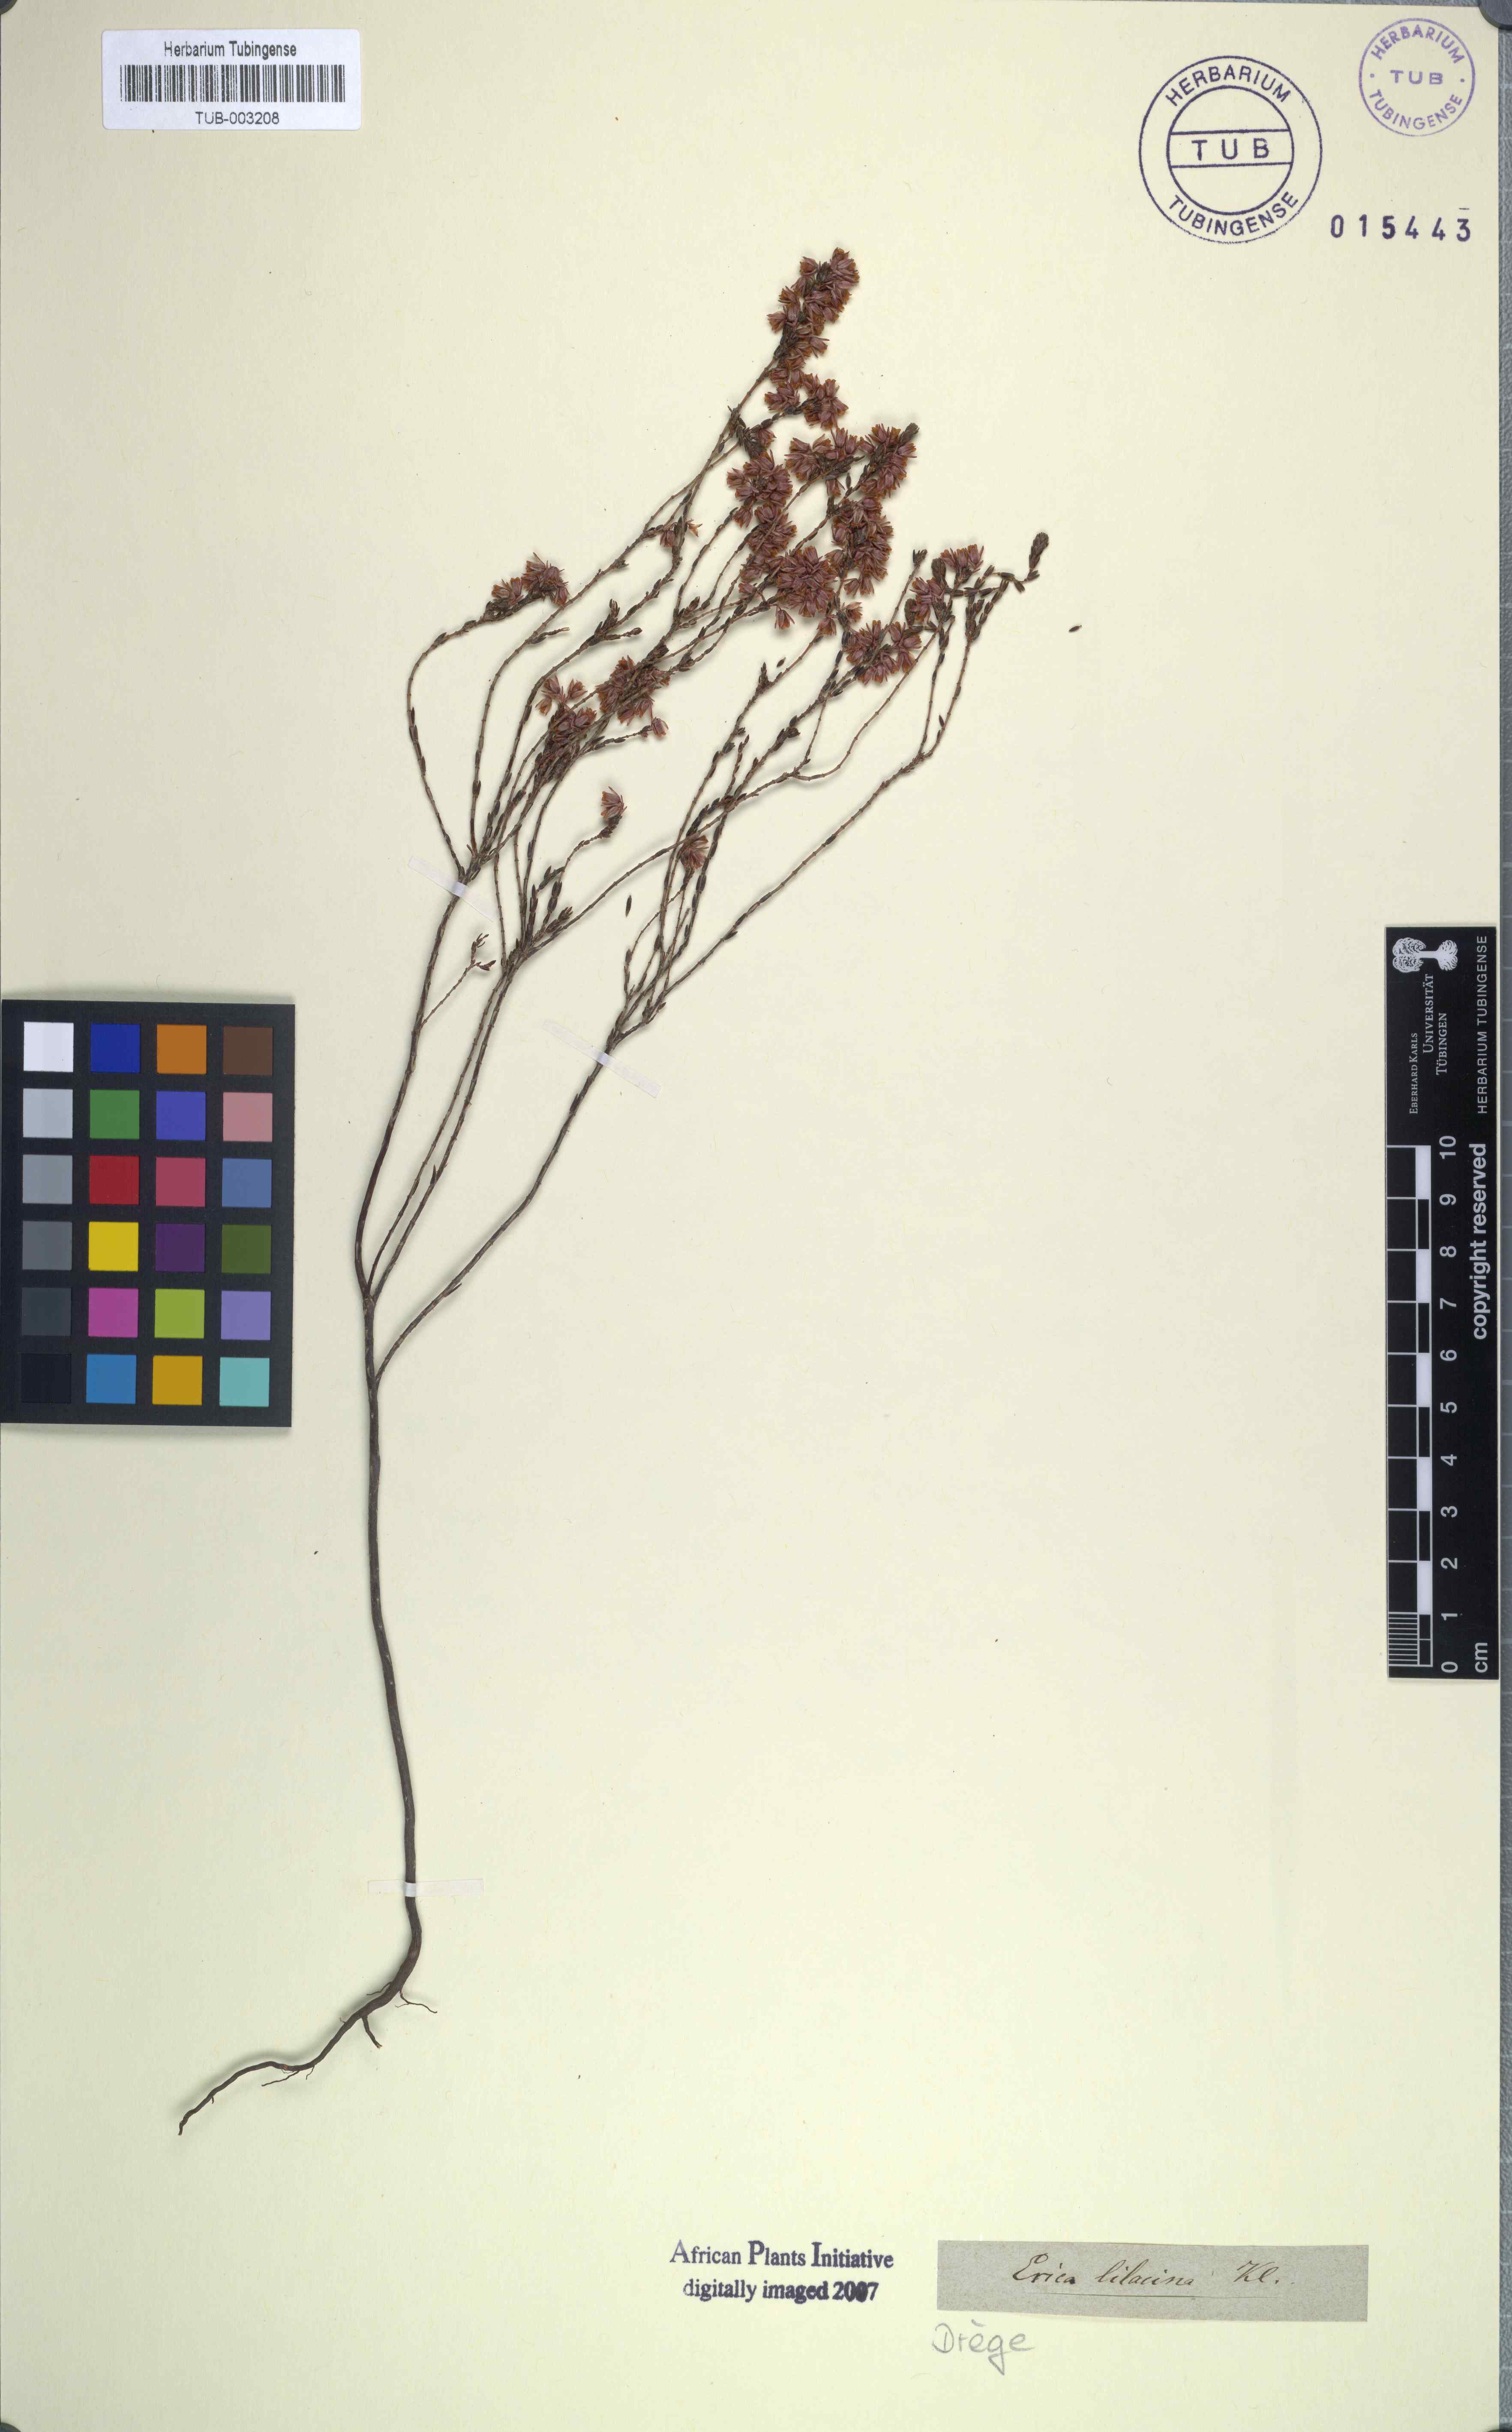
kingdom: Plantae
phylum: Tracheophyta
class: Magnoliopsida
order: Ericales
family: Ericaceae
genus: Erica
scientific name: Erica calycina
